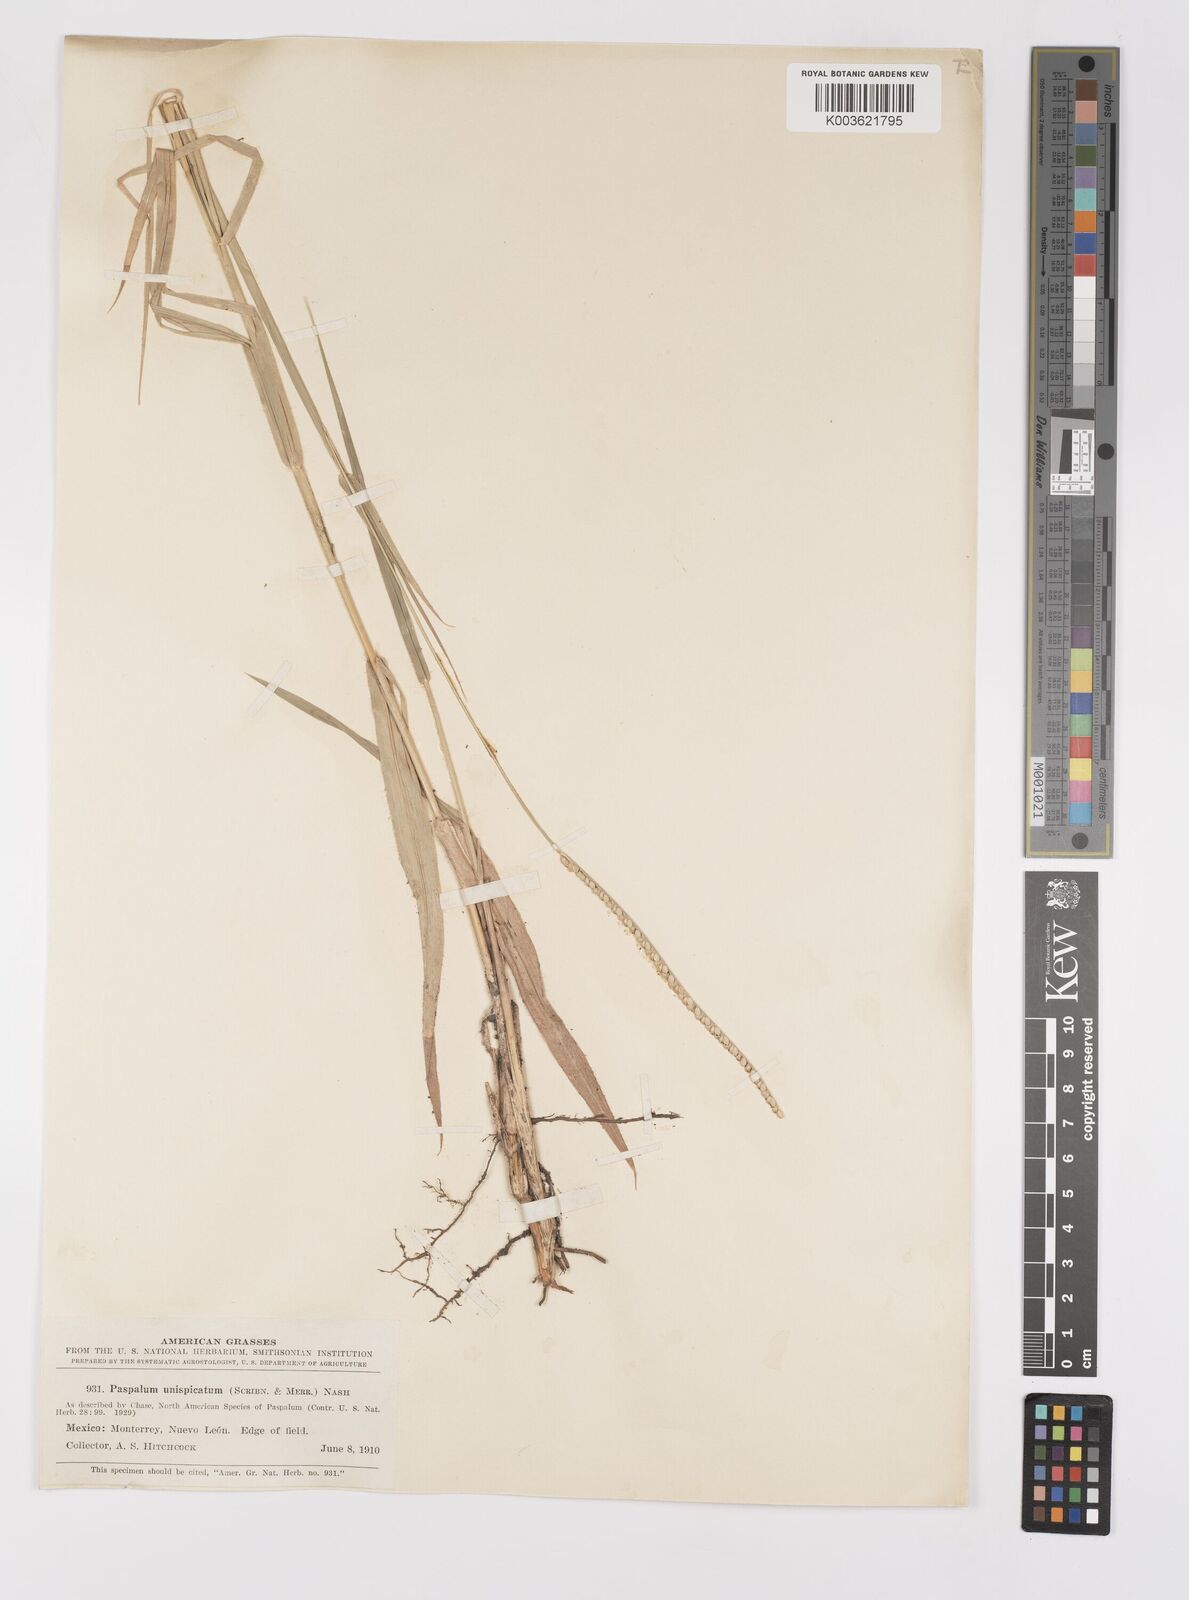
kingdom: Plantae
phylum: Tracheophyta
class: Liliopsida
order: Poales
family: Poaceae
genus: Paspalum
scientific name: Paspalum unispicatum
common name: Onespike paspalum
